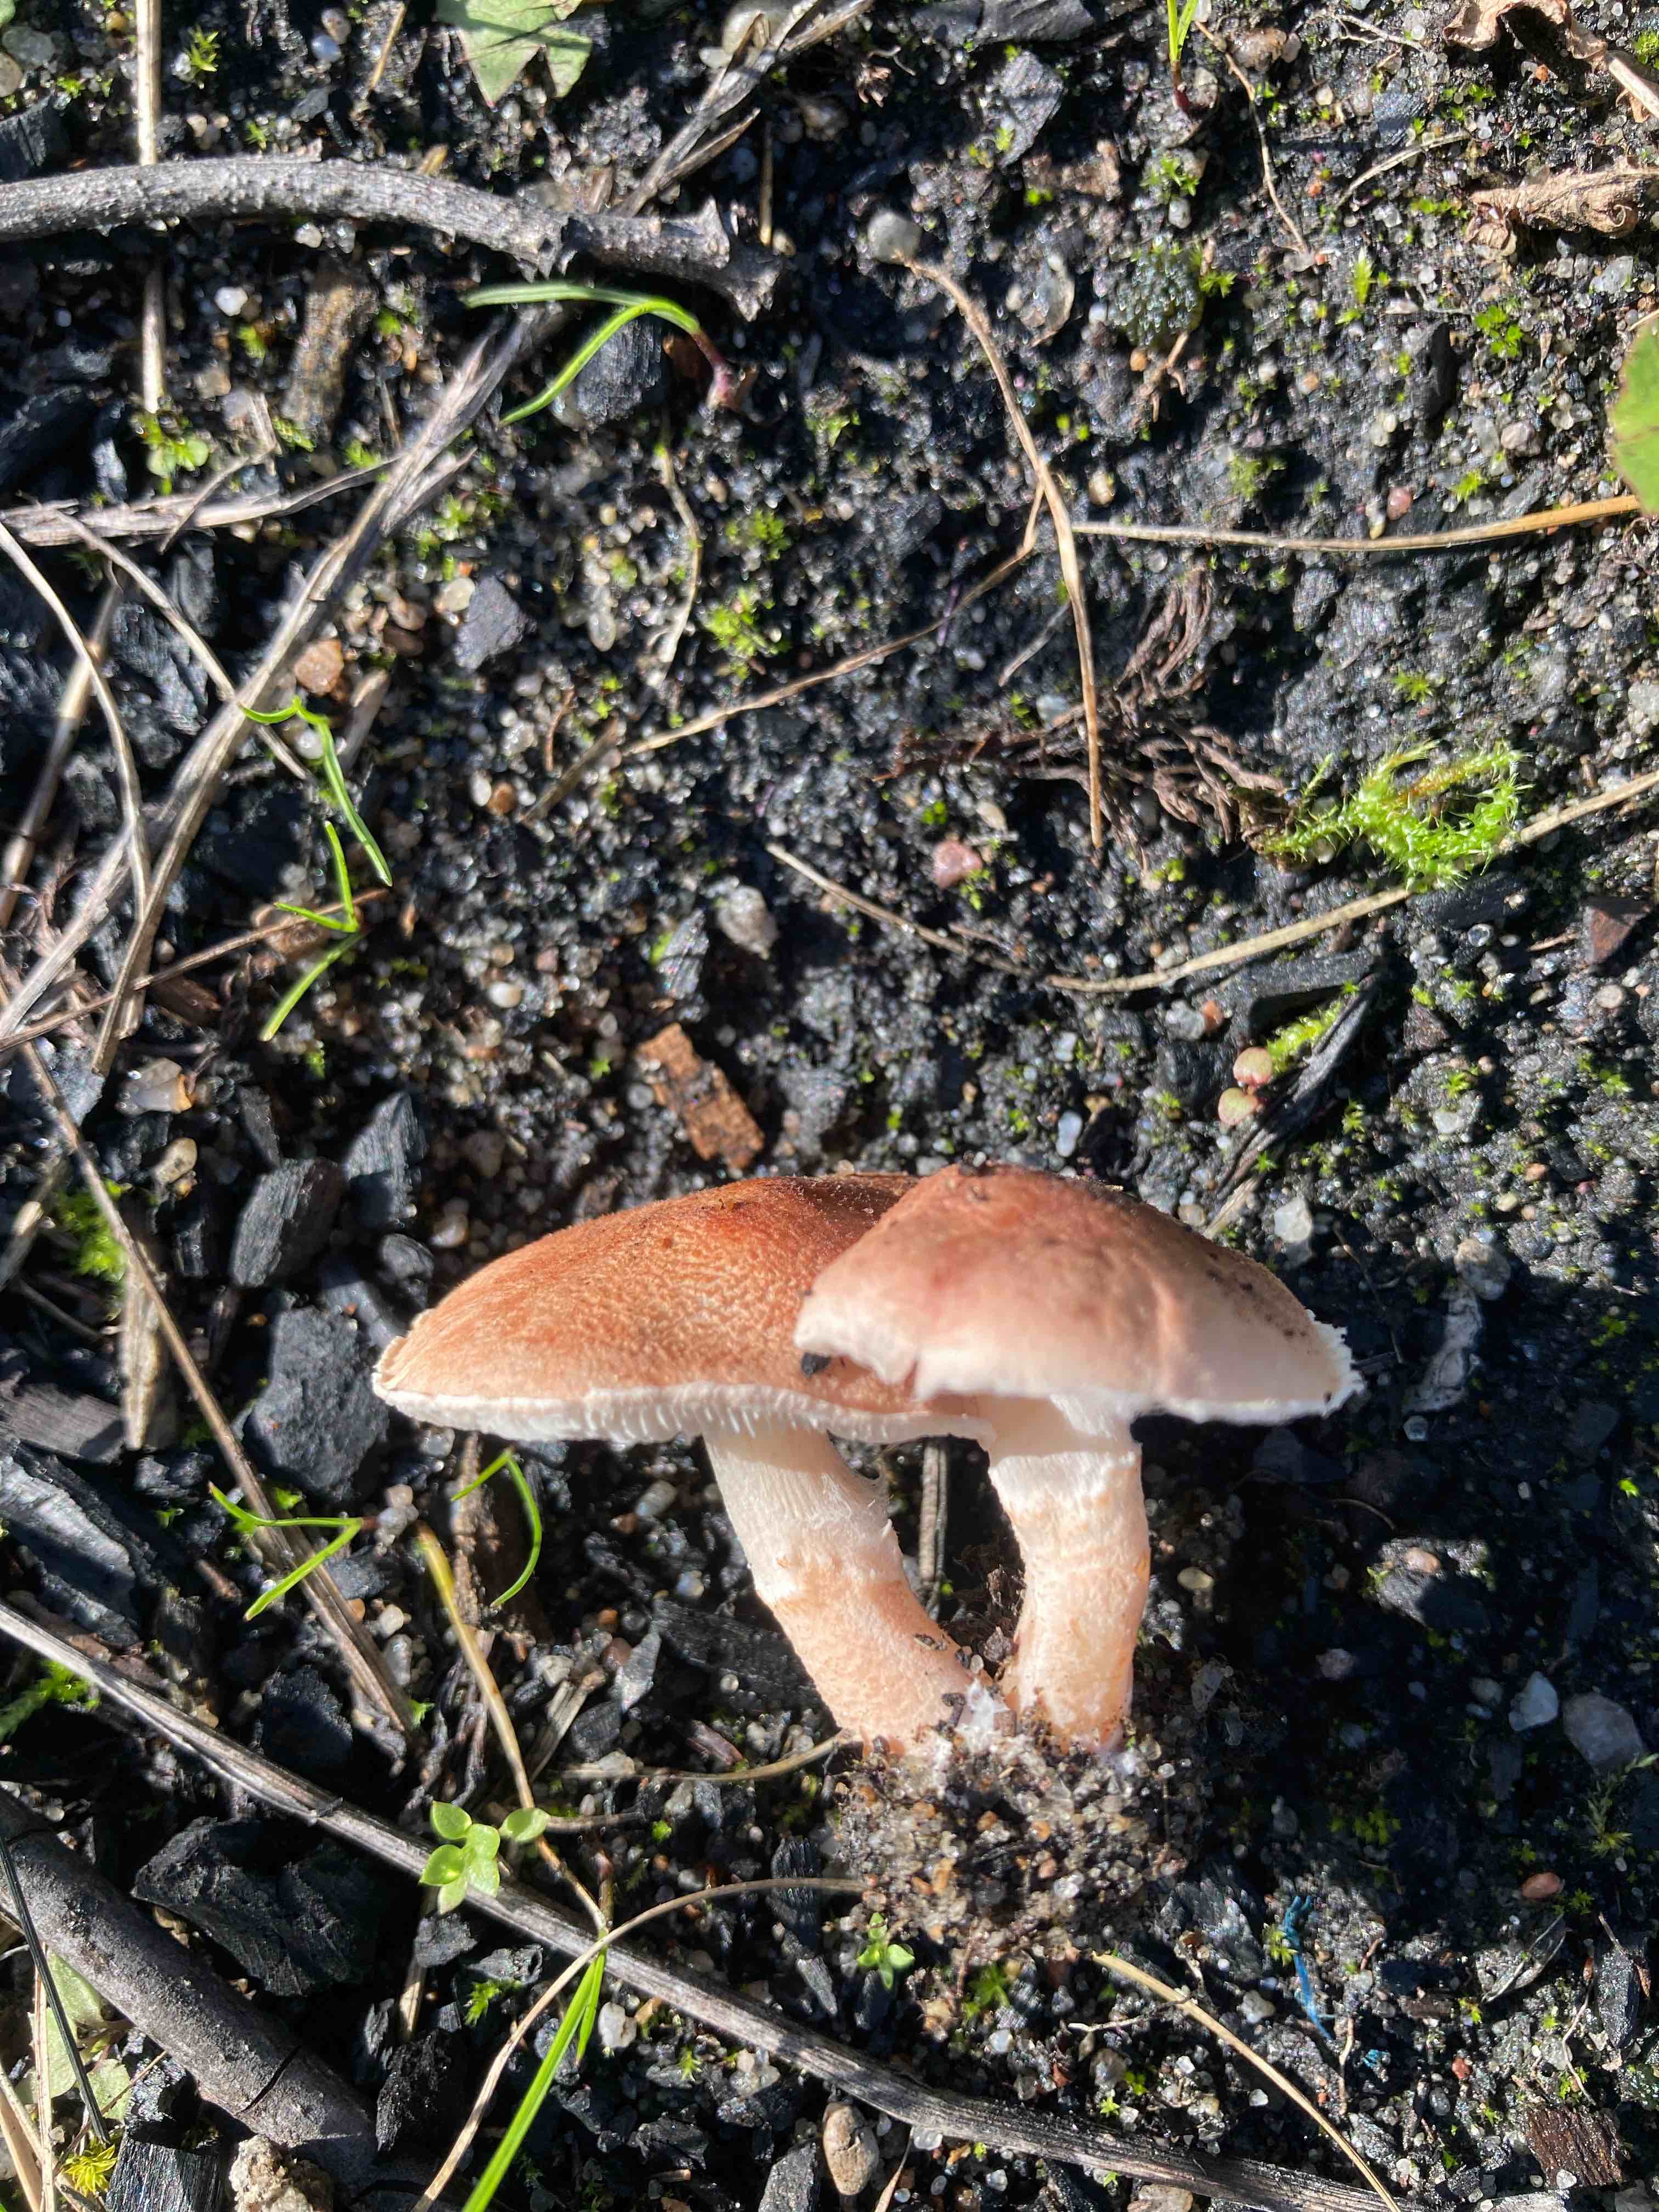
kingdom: Fungi
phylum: Basidiomycota
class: Agaricomycetes
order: Agaricales
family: Agaricaceae
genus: Lepiota
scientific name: Lepiota subincarnata
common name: kødfarvet parasolhat
